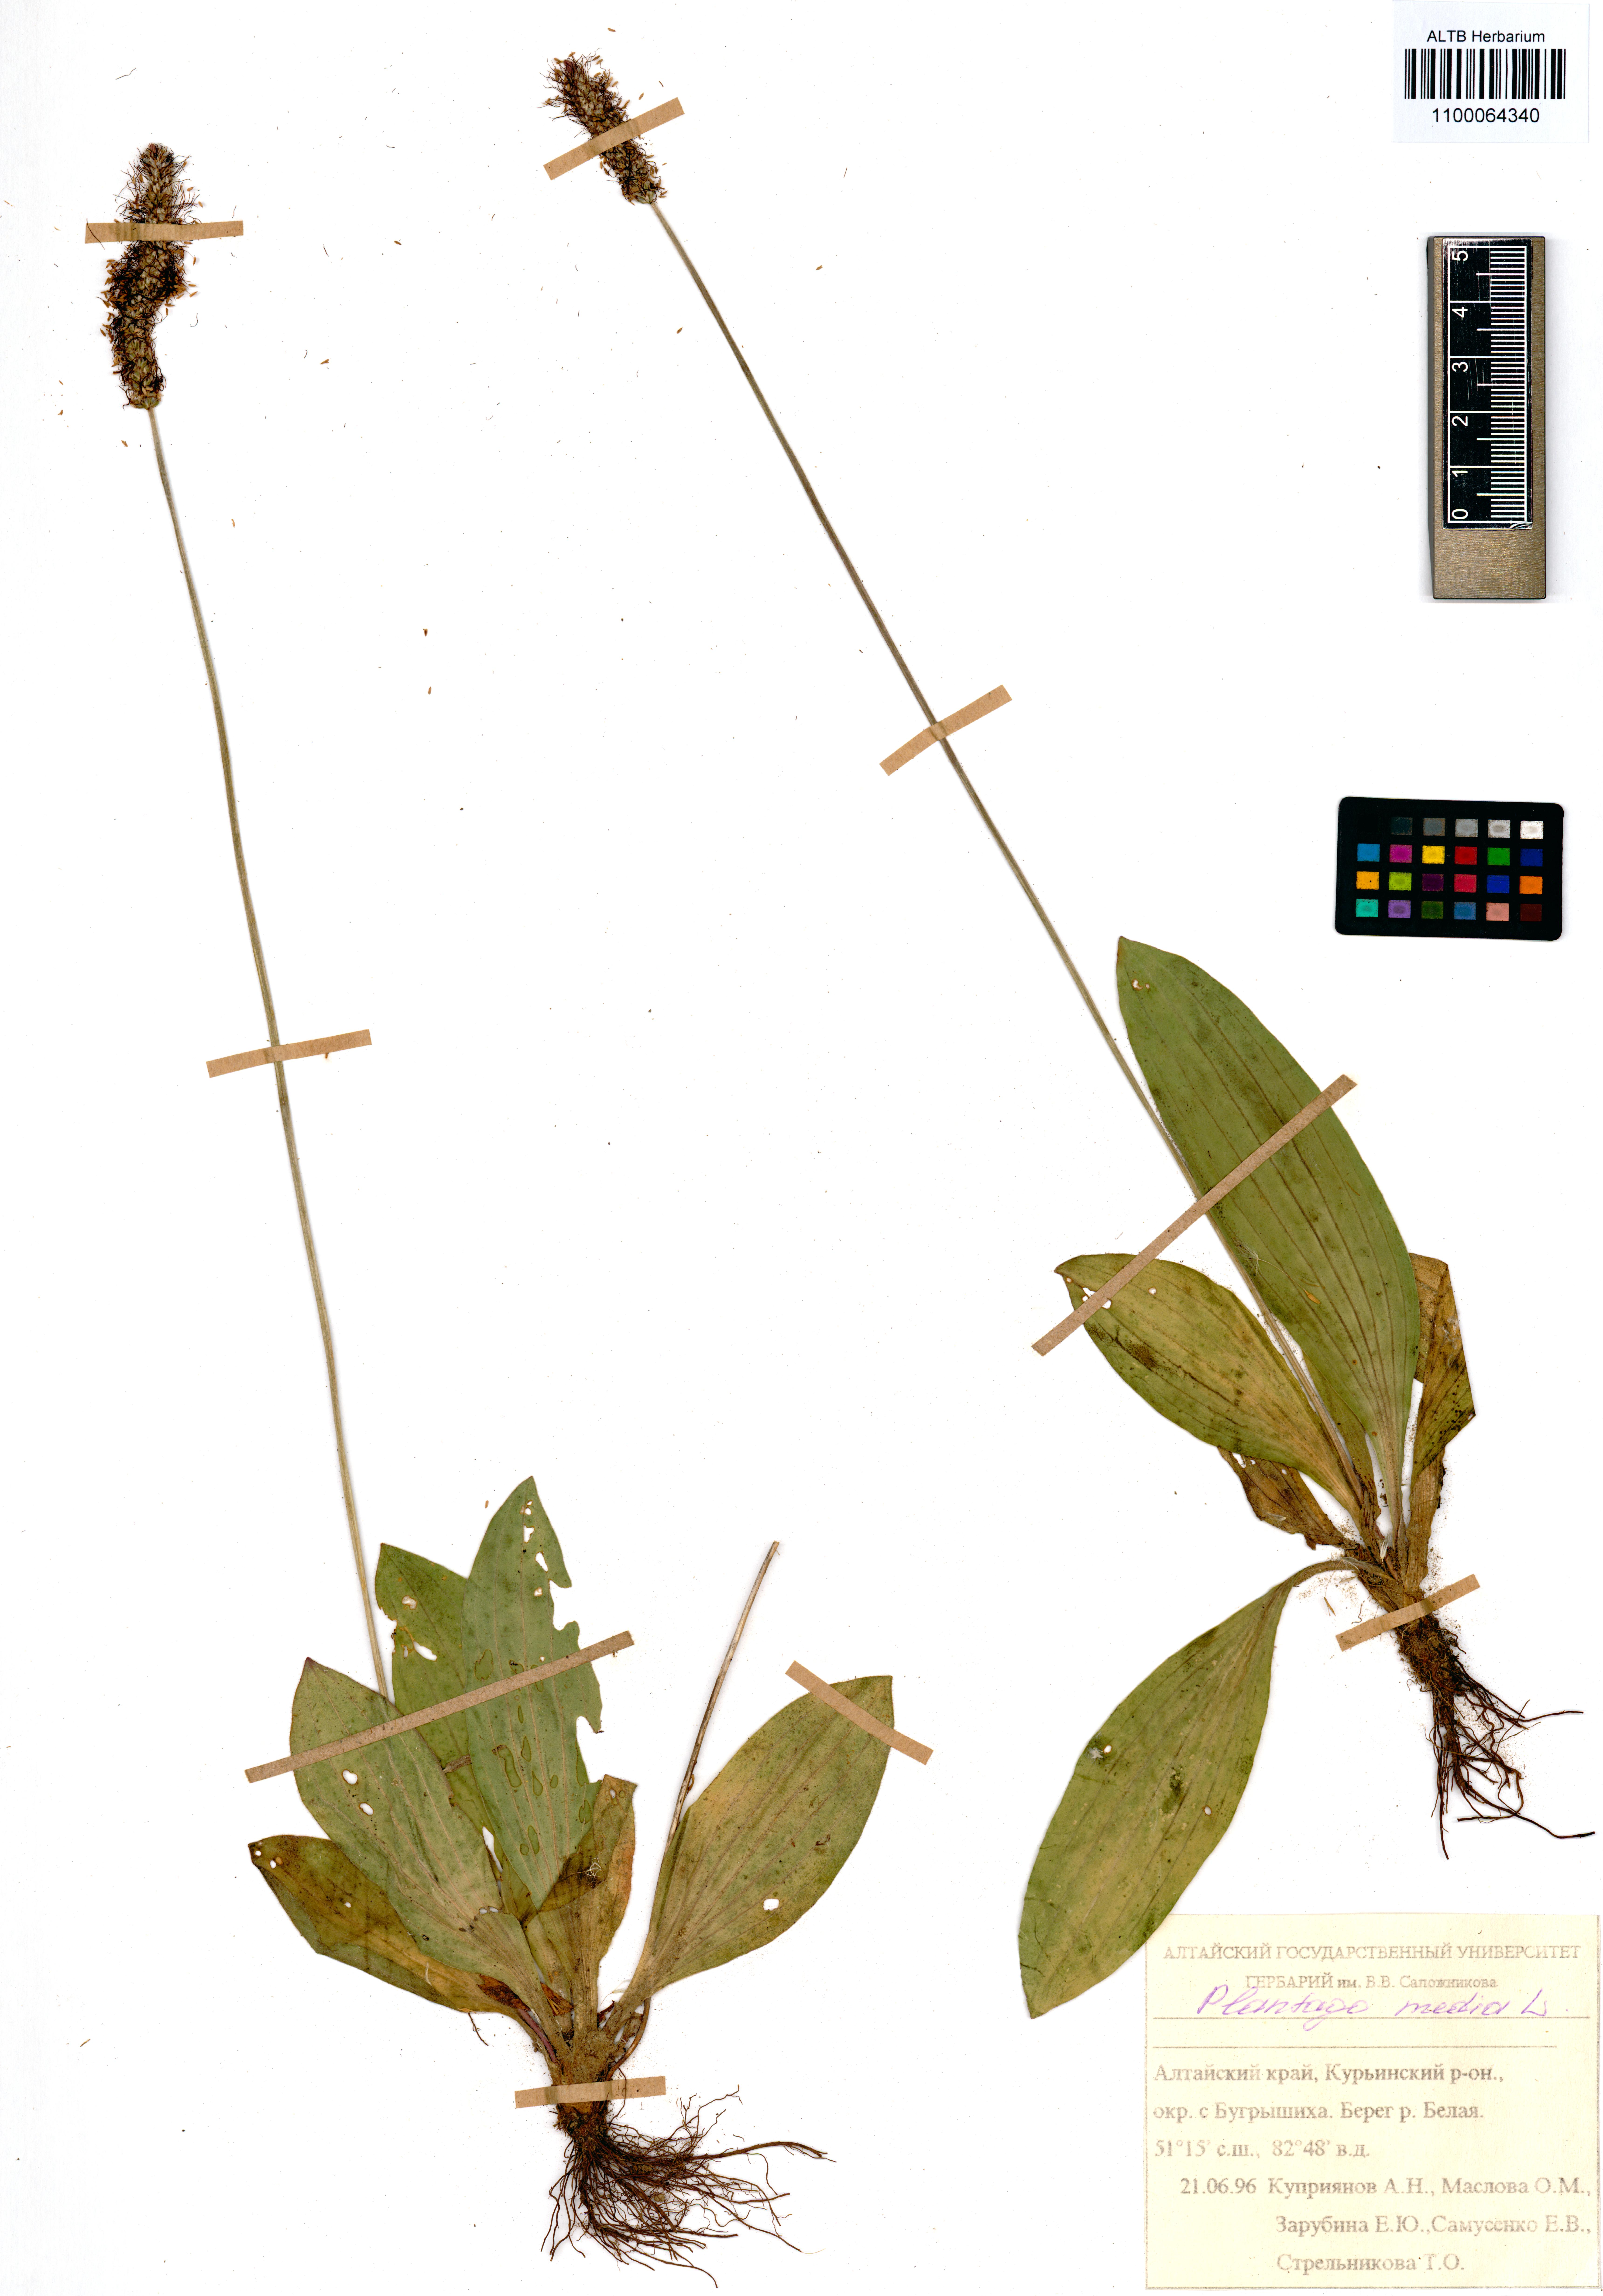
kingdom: Plantae
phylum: Tracheophyta
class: Magnoliopsida
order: Lamiales
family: Plantaginaceae
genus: Plantago
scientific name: Plantago media
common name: Hoary plantain
